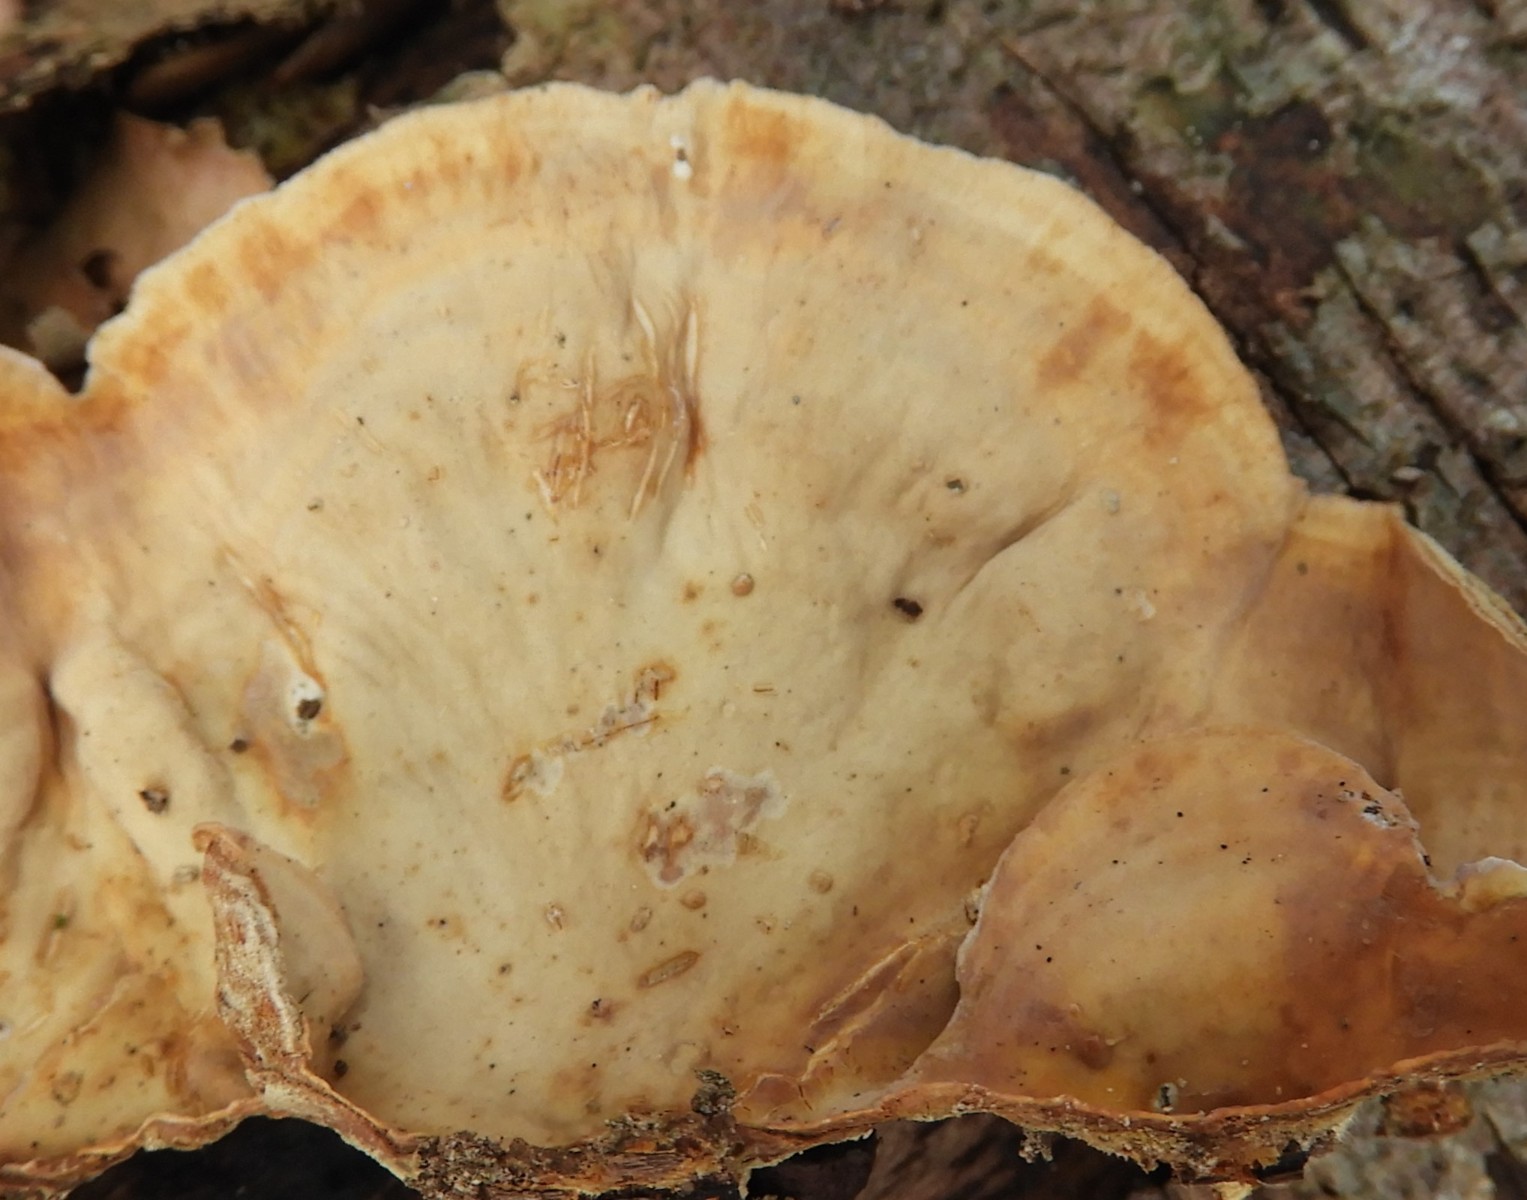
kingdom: Fungi
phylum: Basidiomycota
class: Agaricomycetes
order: Russulales
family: Stereaceae
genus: Stereum
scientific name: Stereum subtomentosum
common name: smuk lædersvamp
